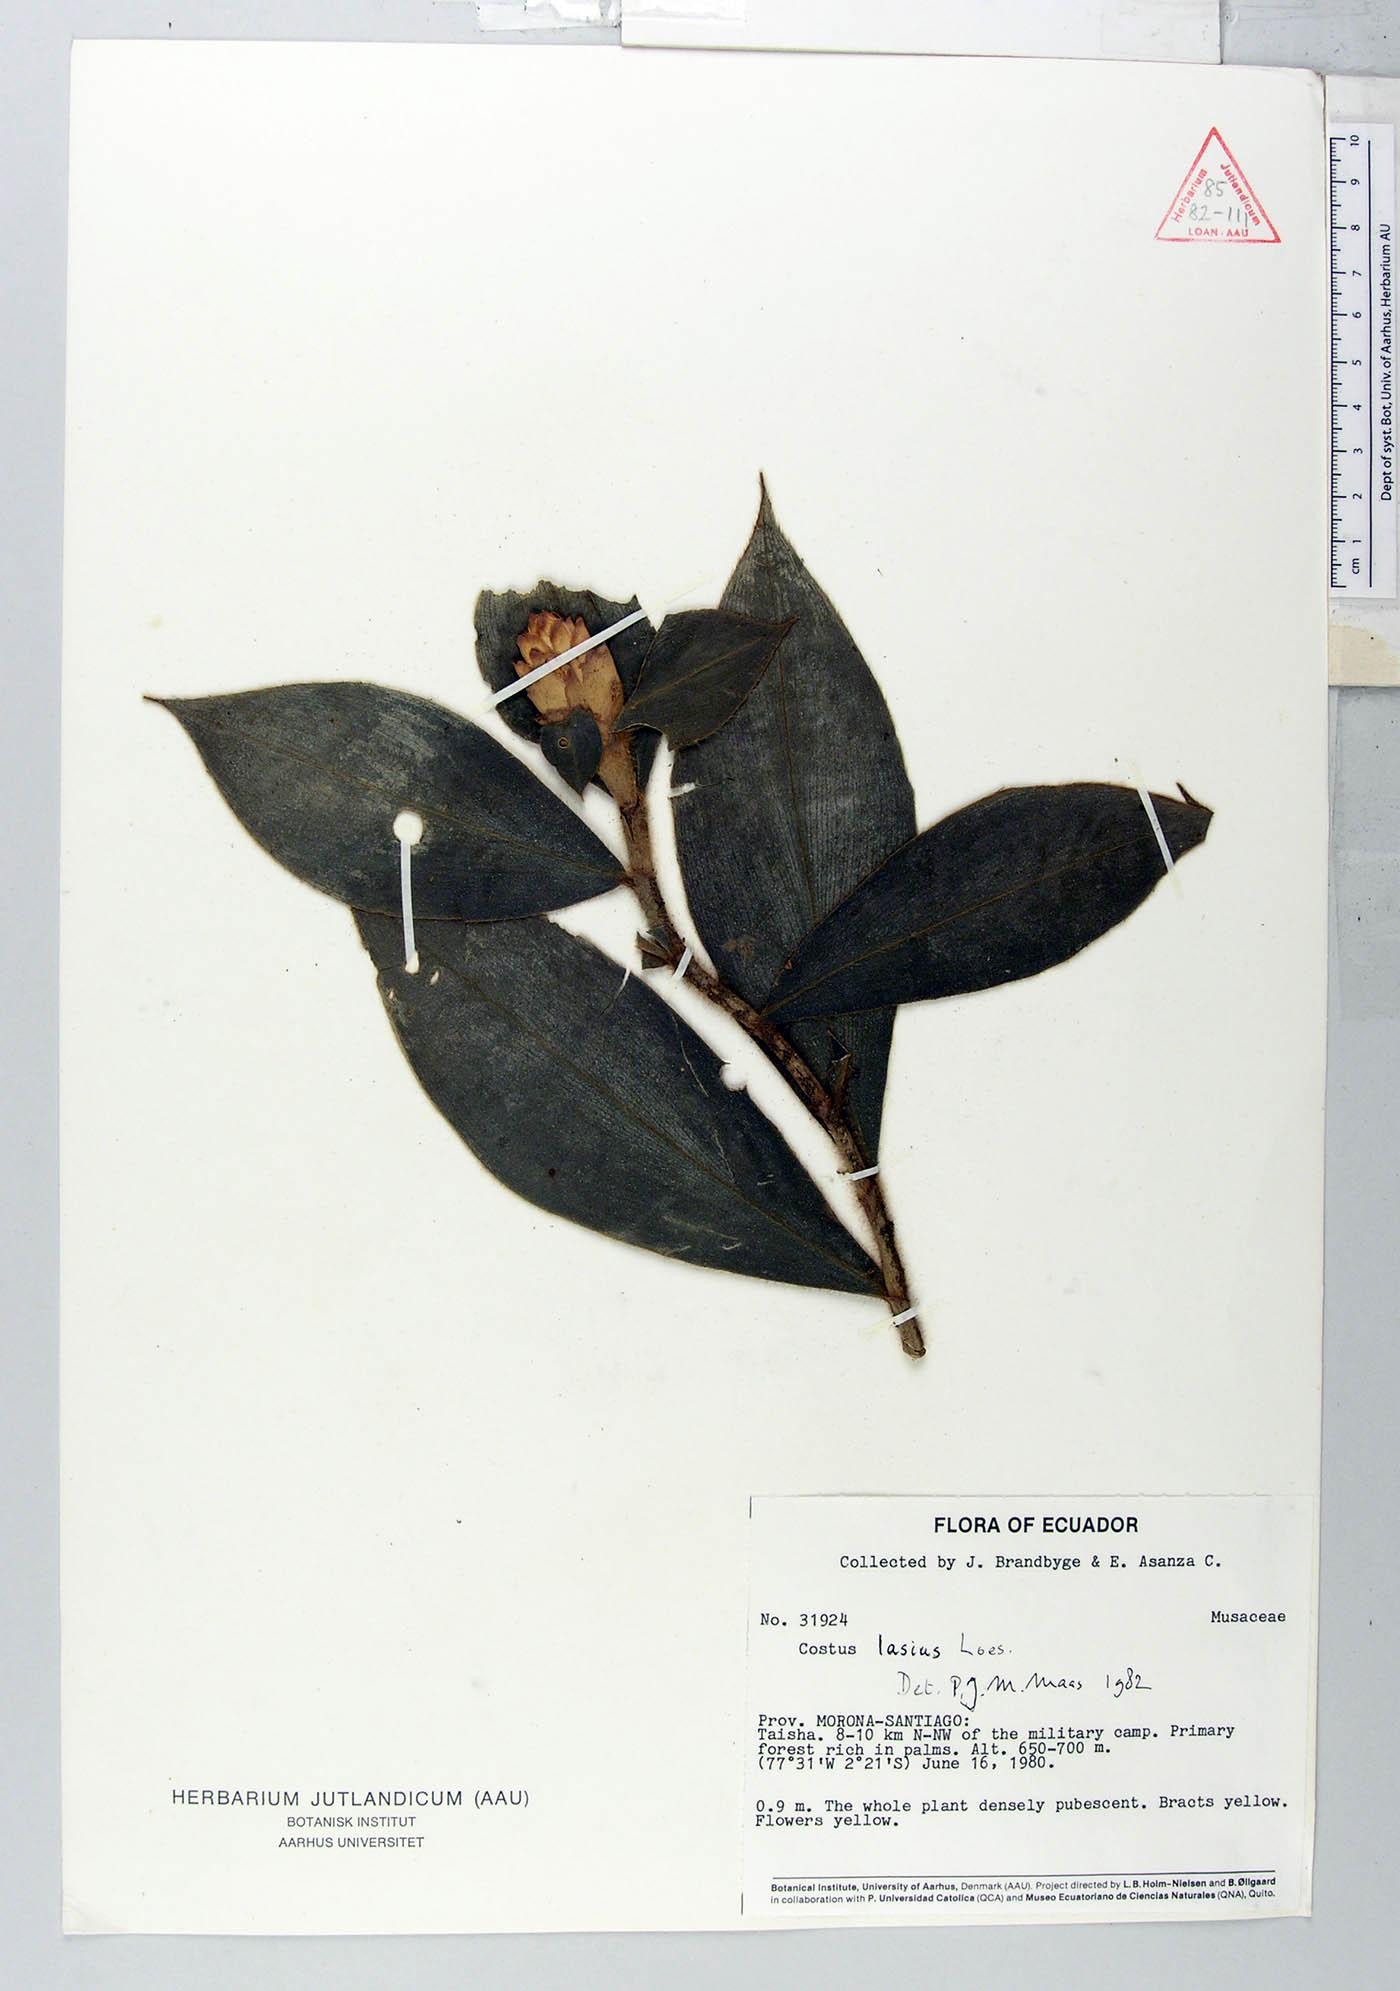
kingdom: Plantae
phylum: Tracheophyta
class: Liliopsida
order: Zingiberales
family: Costaceae
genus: Costus
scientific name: Costus lasius
